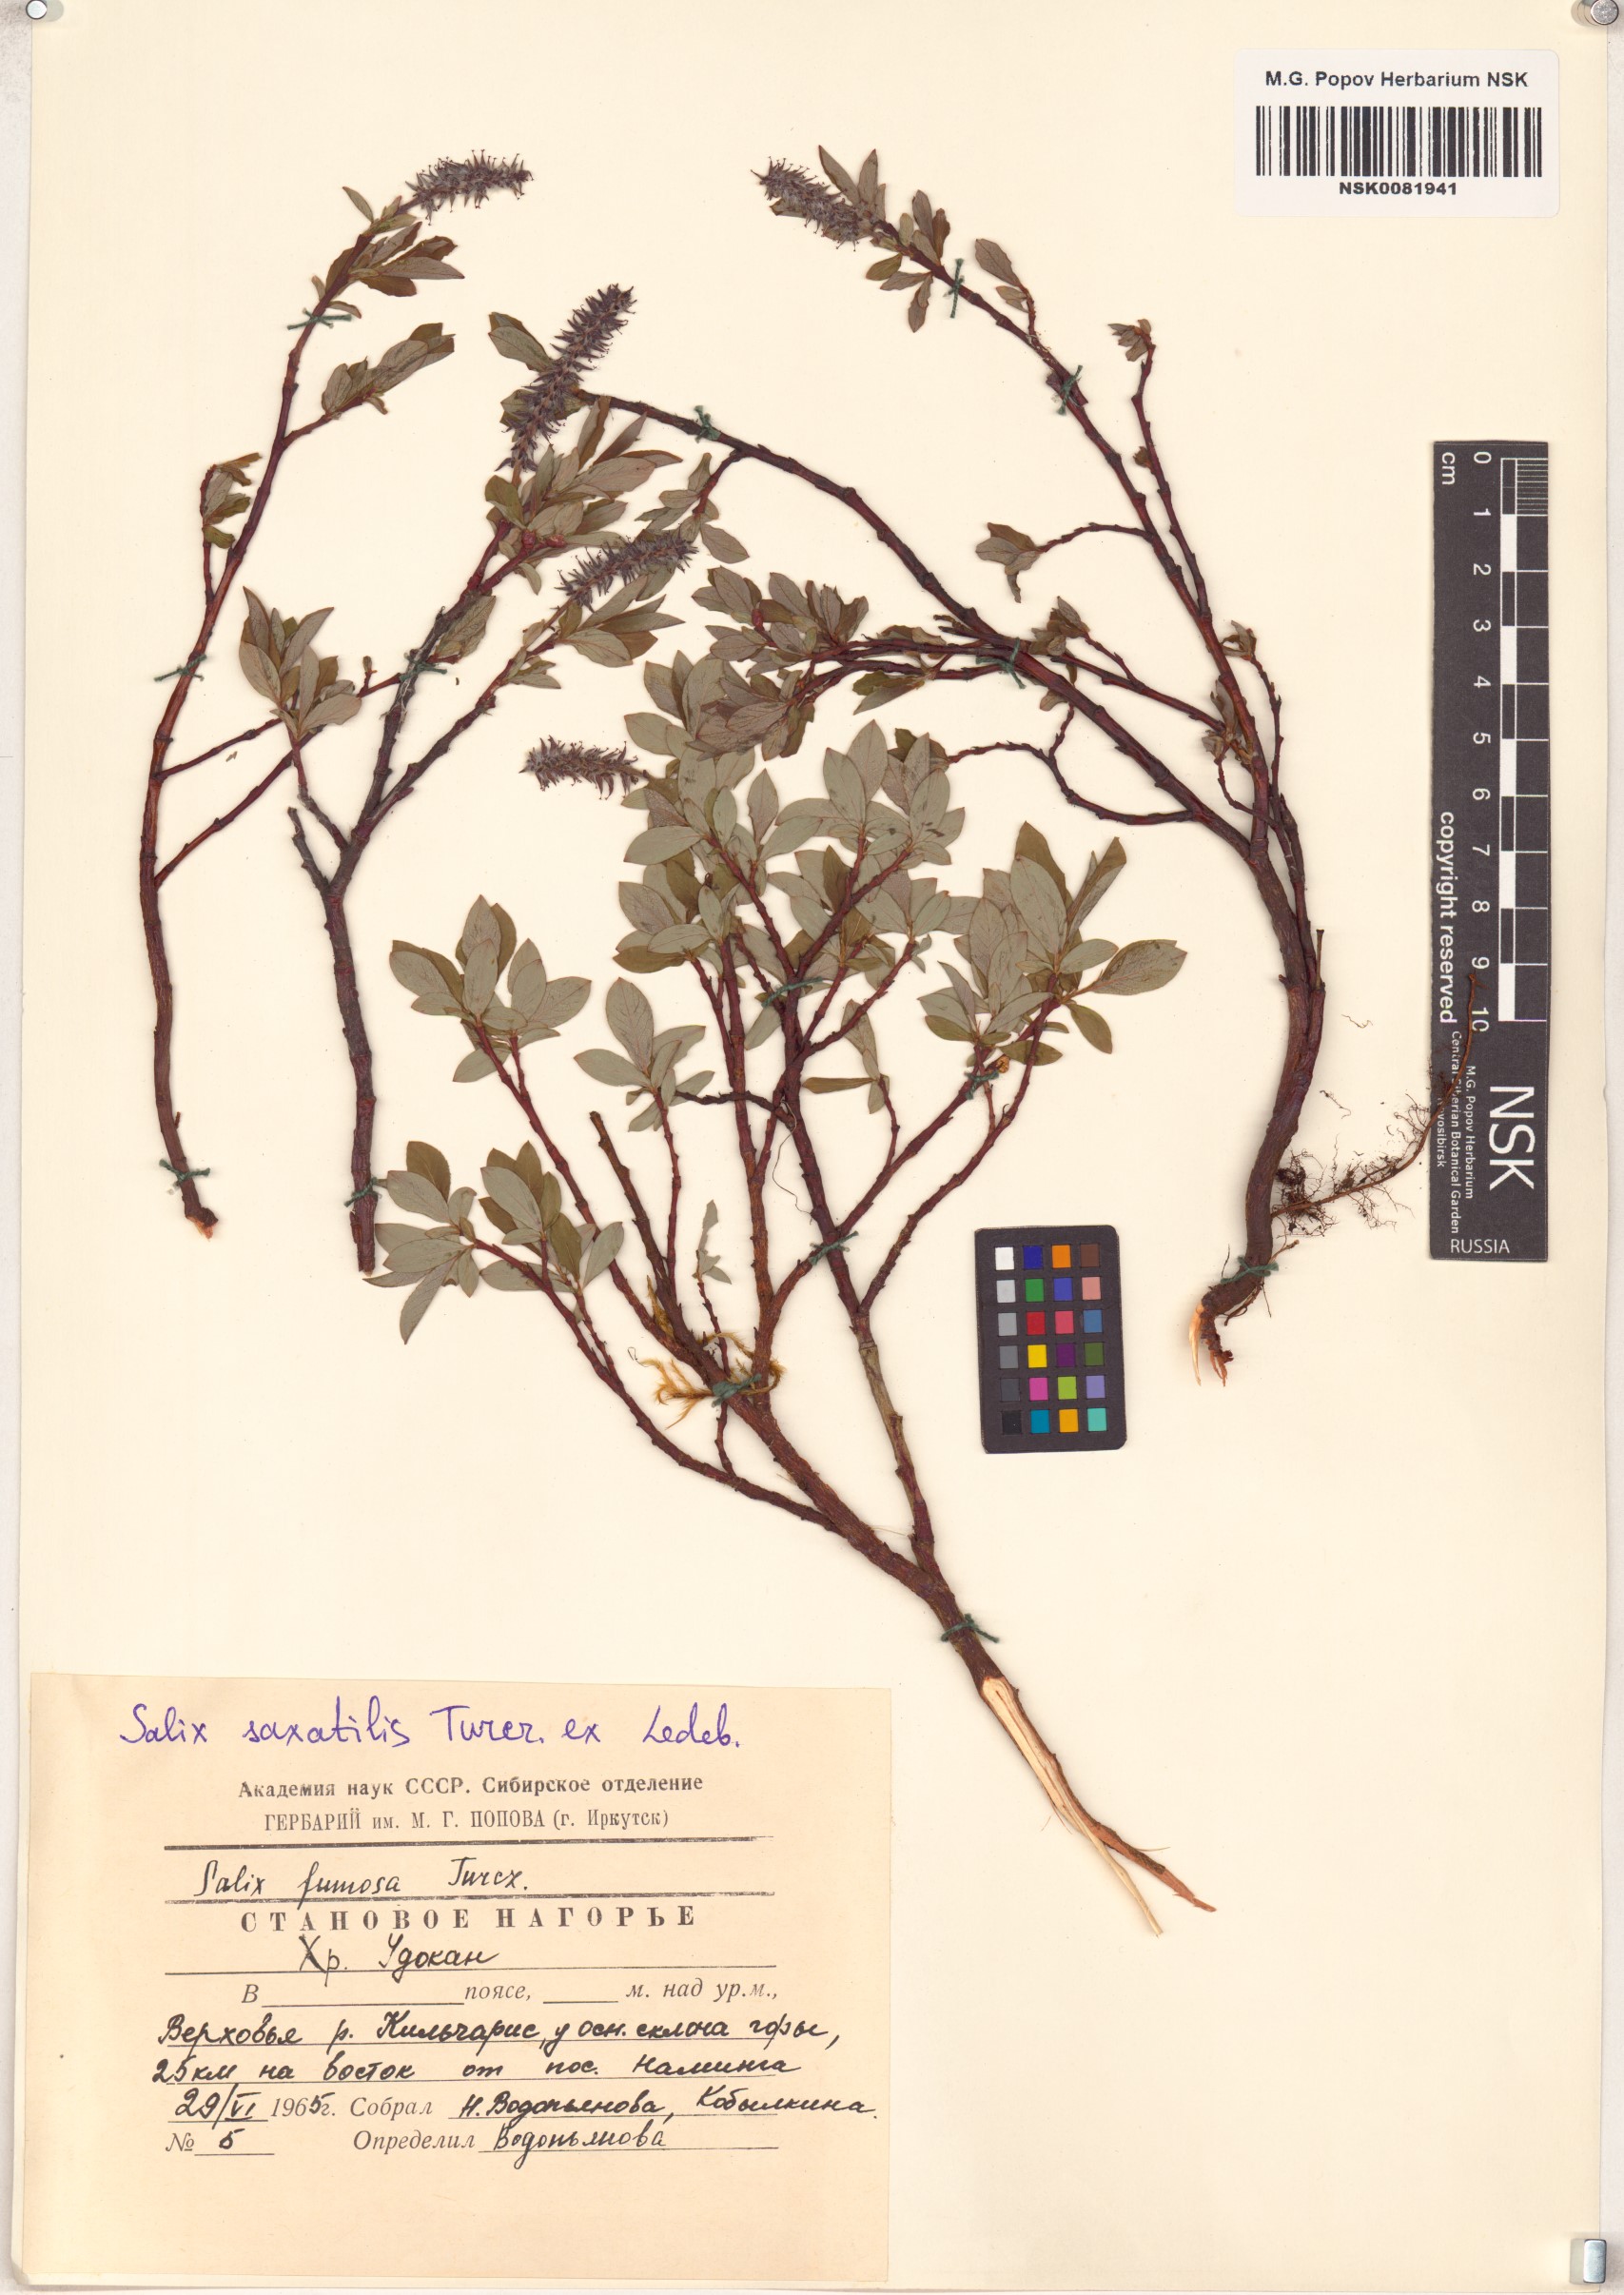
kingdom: Plantae
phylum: Tracheophyta
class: Magnoliopsida
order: Malpighiales
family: Salicaceae
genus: Salix
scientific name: Salix saxatilis
